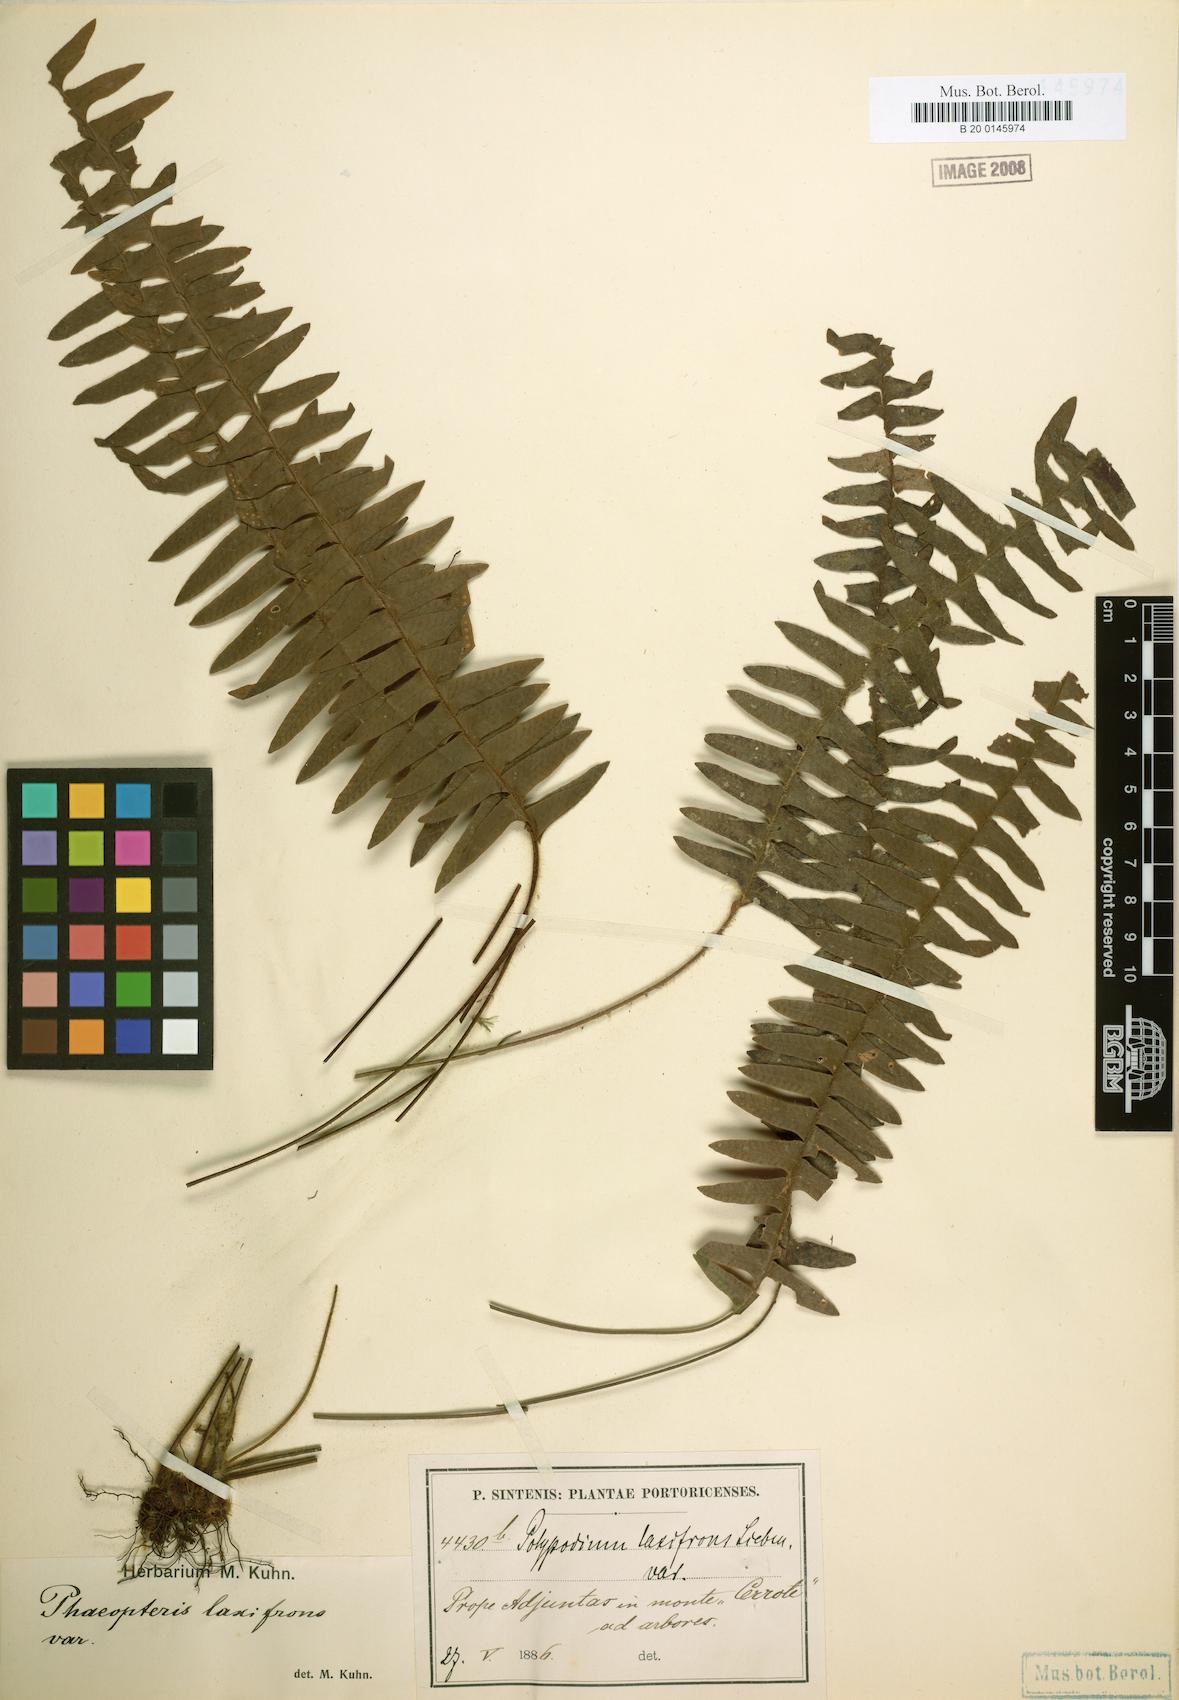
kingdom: Plantae
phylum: Tracheophyta
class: Polypodiopsida
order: Polypodiales
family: Polypodiaceae
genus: Terpsichore
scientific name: Terpsichore asplenifolia
